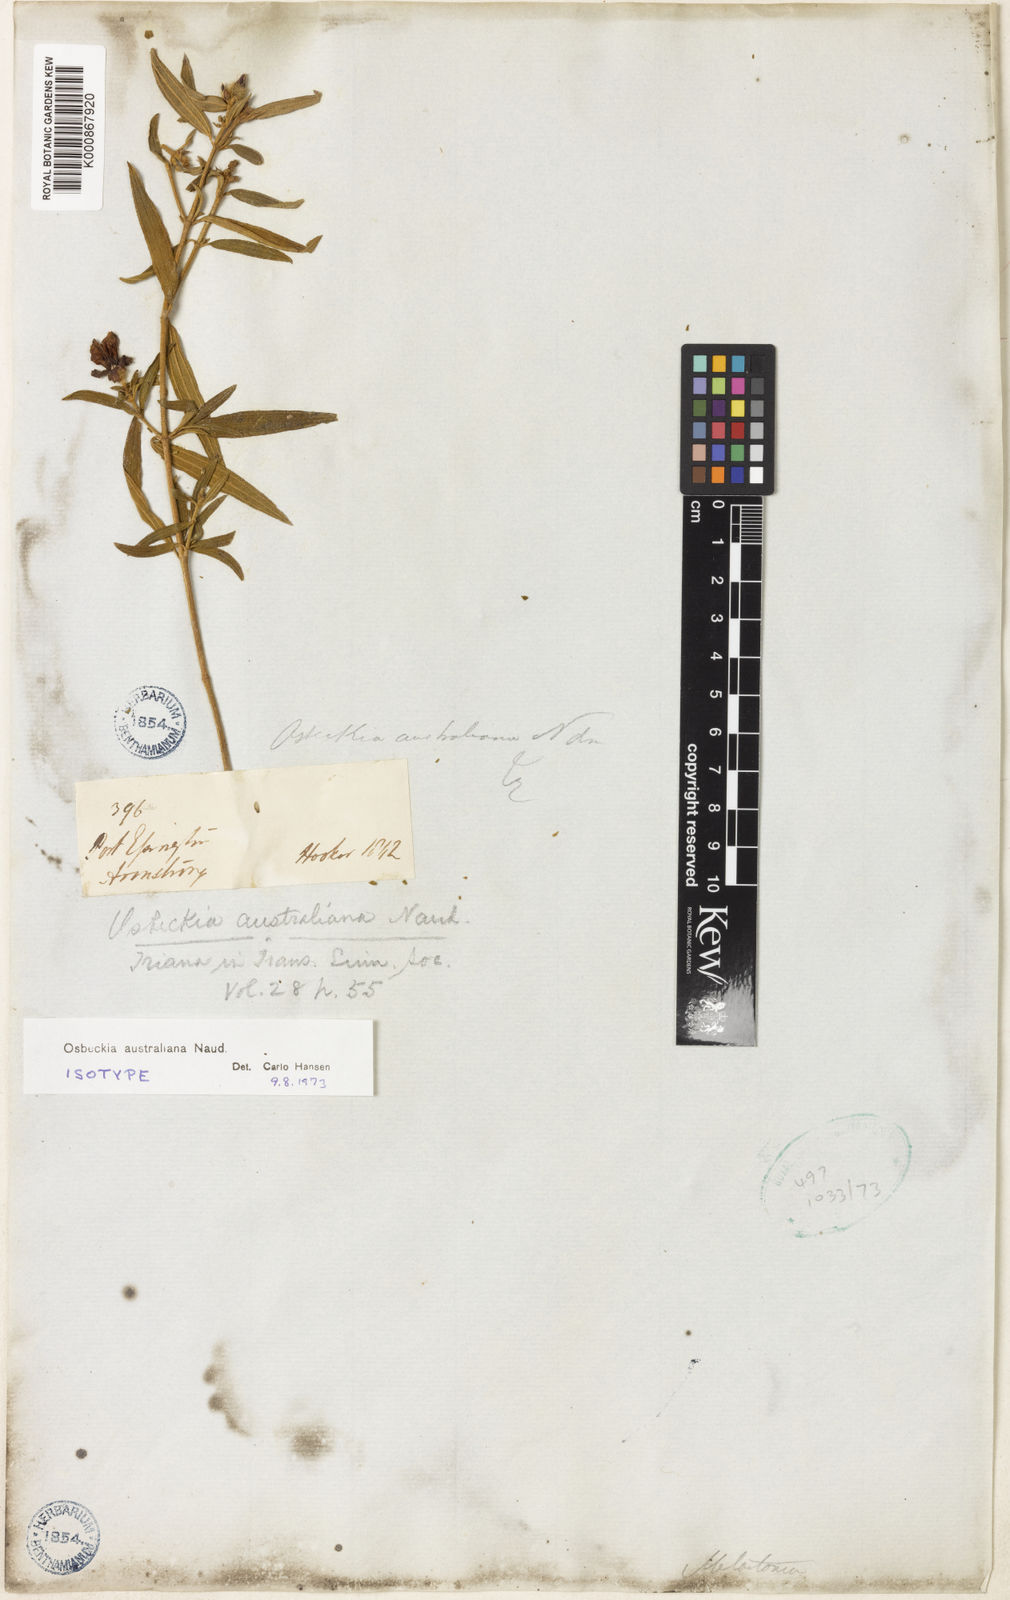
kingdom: Plantae
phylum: Tracheophyta
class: Magnoliopsida
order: Myrtales
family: Melastomataceae
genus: Osbeckia
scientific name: Osbeckia australiana
